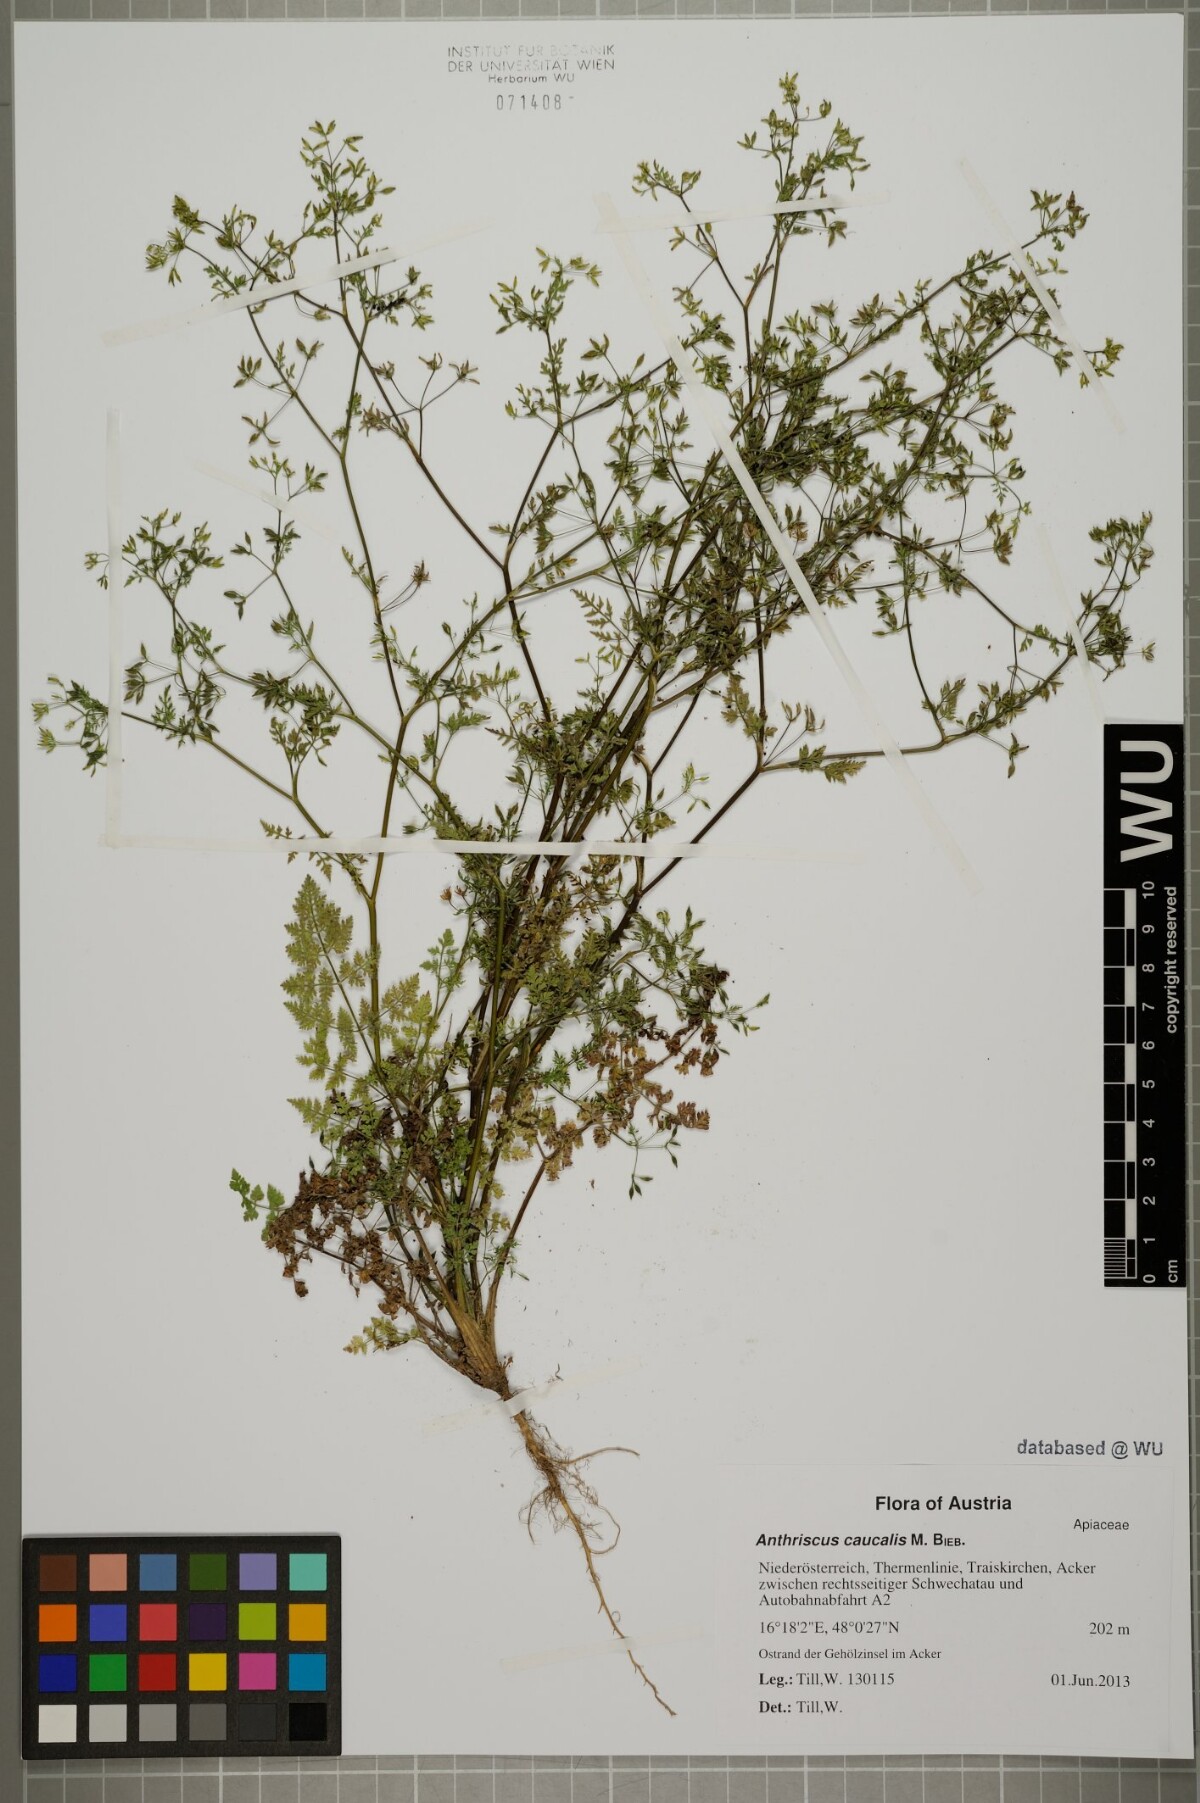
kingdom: Plantae
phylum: Tracheophyta
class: Magnoliopsida
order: Apiales
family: Apiaceae
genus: Anthriscus
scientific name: Anthriscus caucalis
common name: Bur chervil
